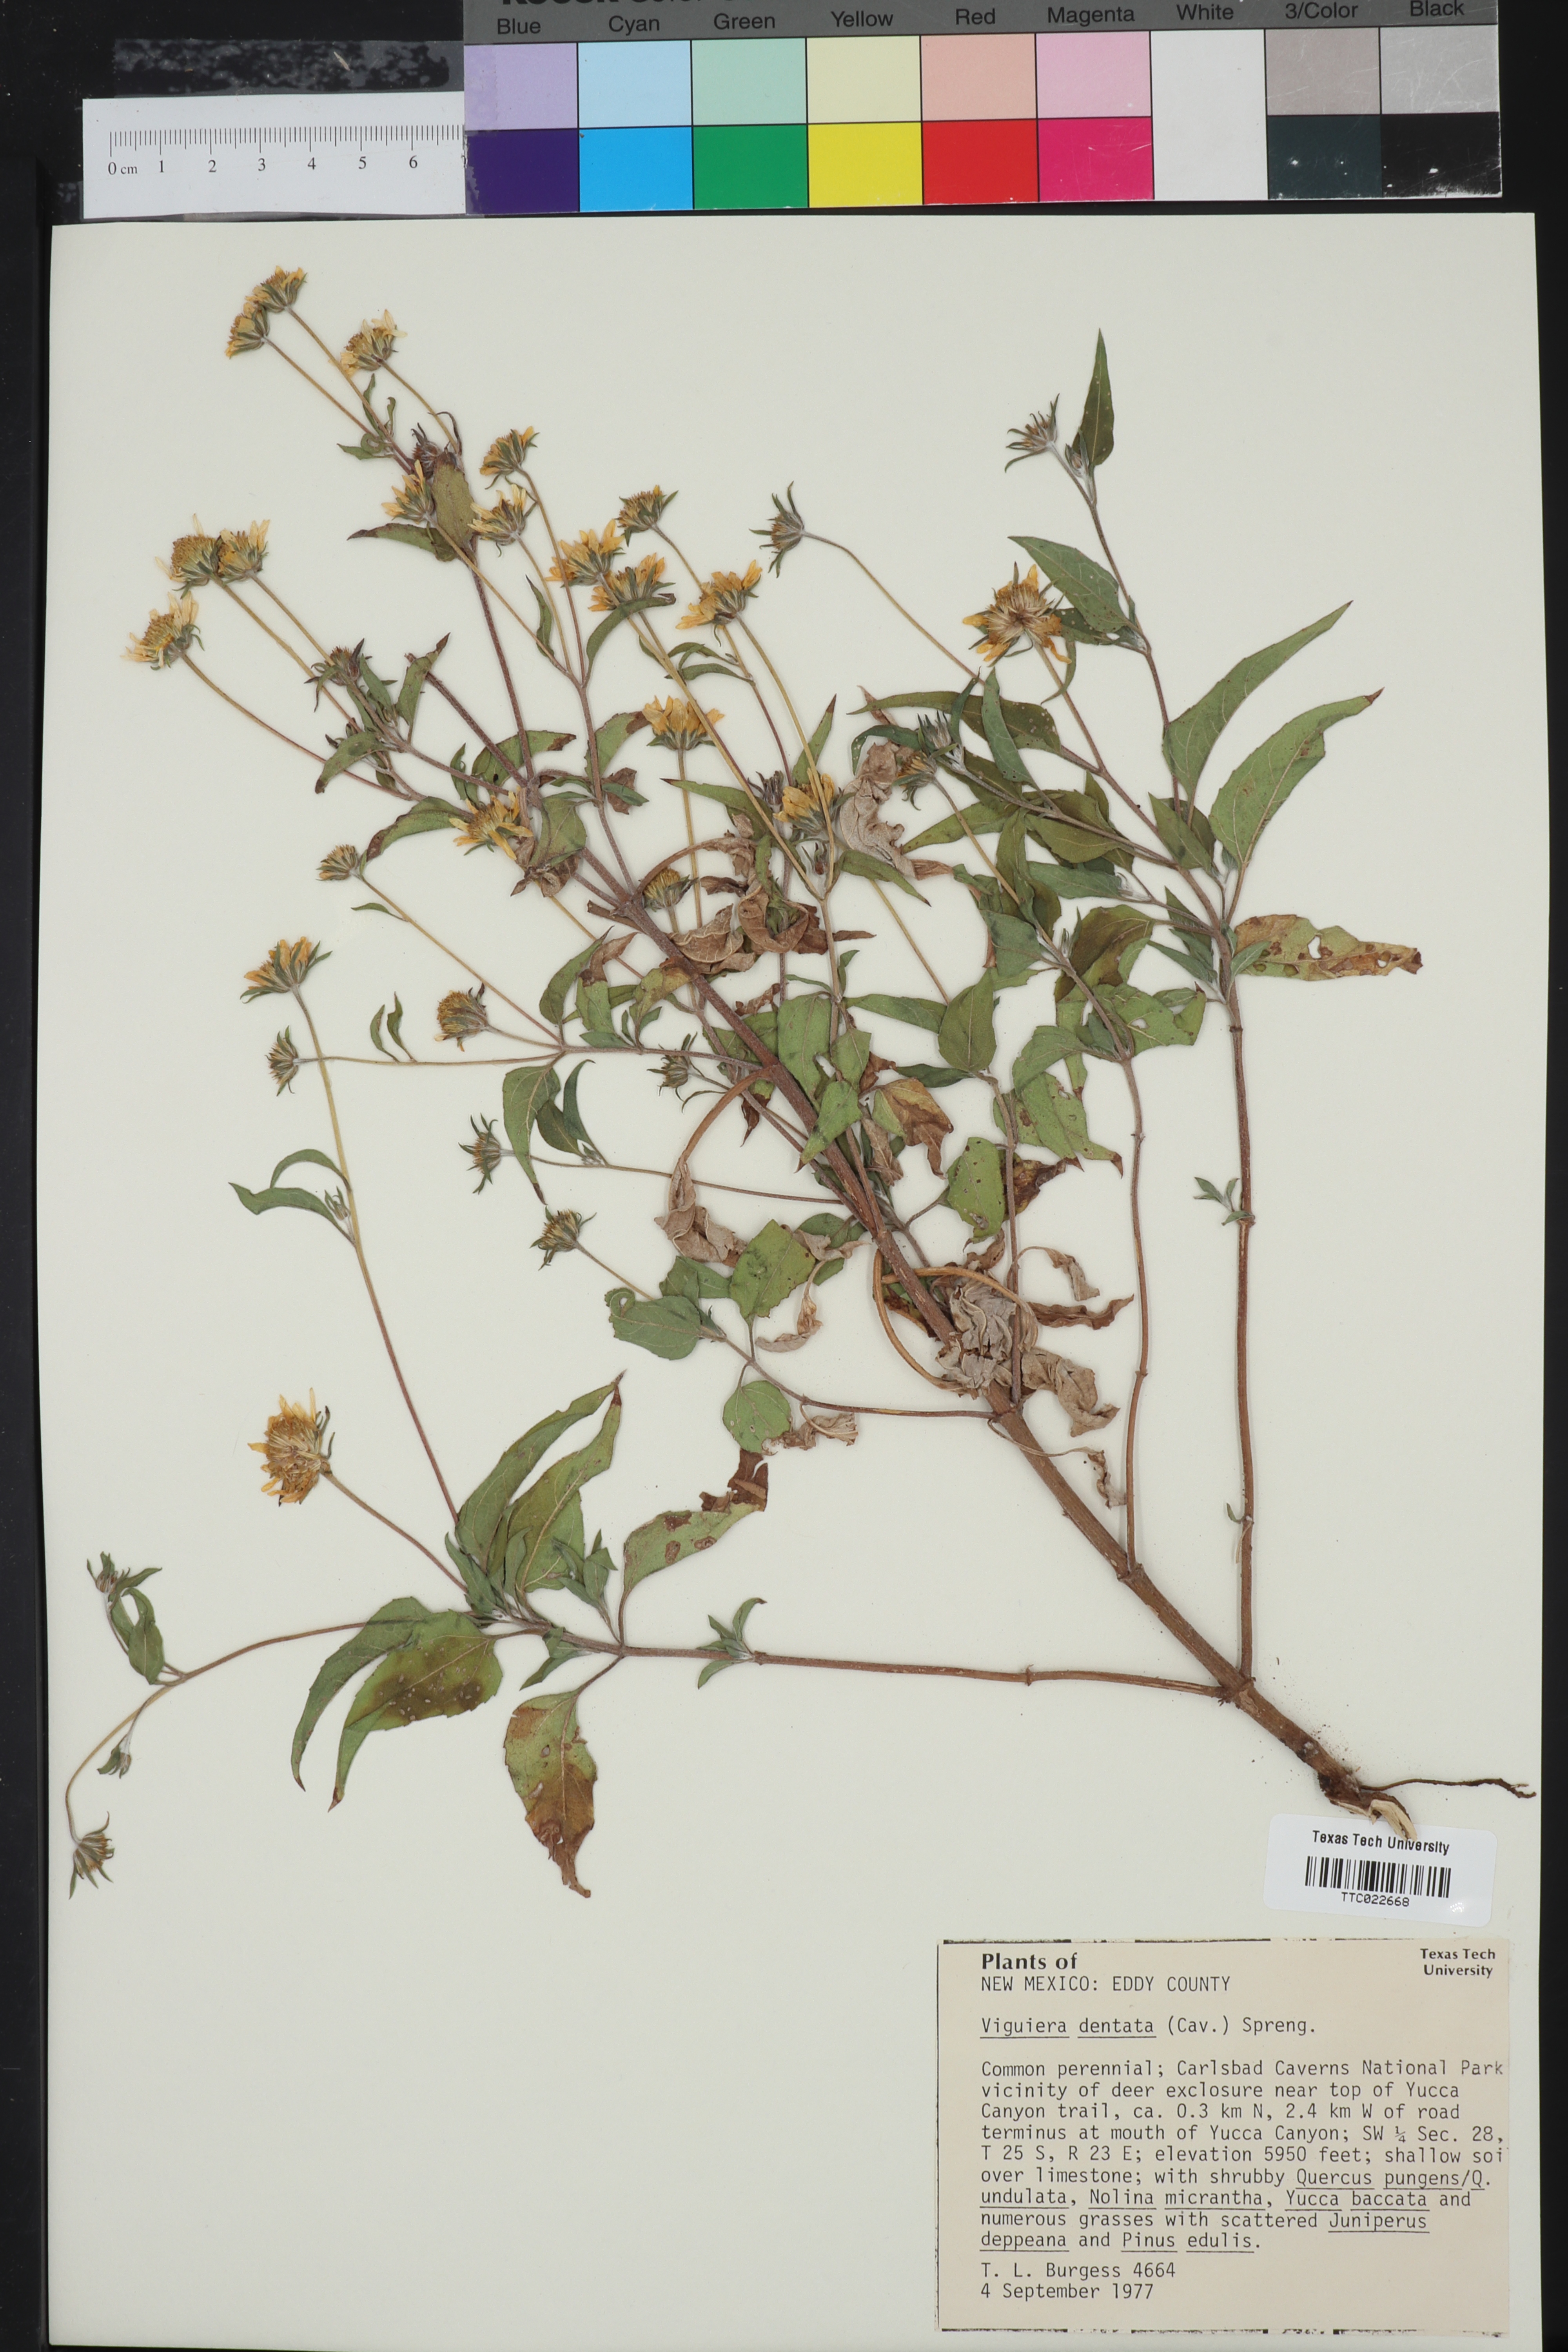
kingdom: Plantae
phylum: Tracheophyta
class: Magnoliopsida
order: Asterales
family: Asteraceae
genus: Viguiera
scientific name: Viguiera dentata
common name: Toothleaf
